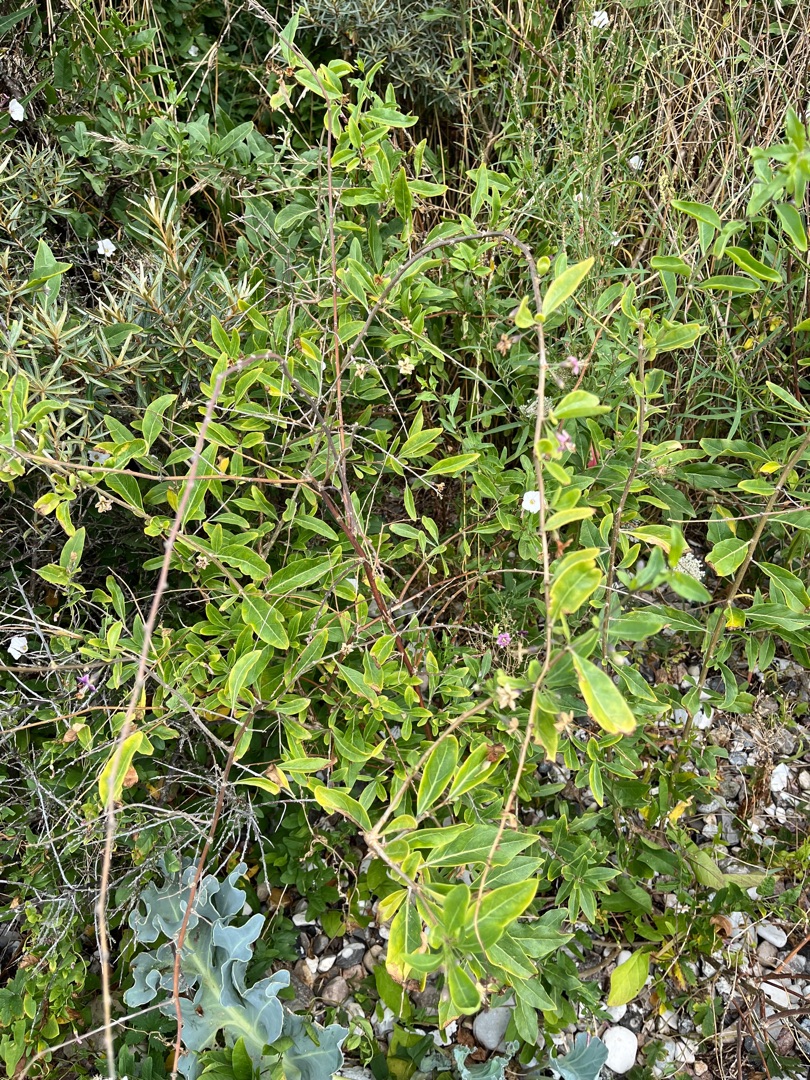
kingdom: Plantae
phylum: Tracheophyta
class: Magnoliopsida
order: Solanales
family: Solanaceae
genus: Lycium
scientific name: Lycium barbarum
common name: Bukketorn
